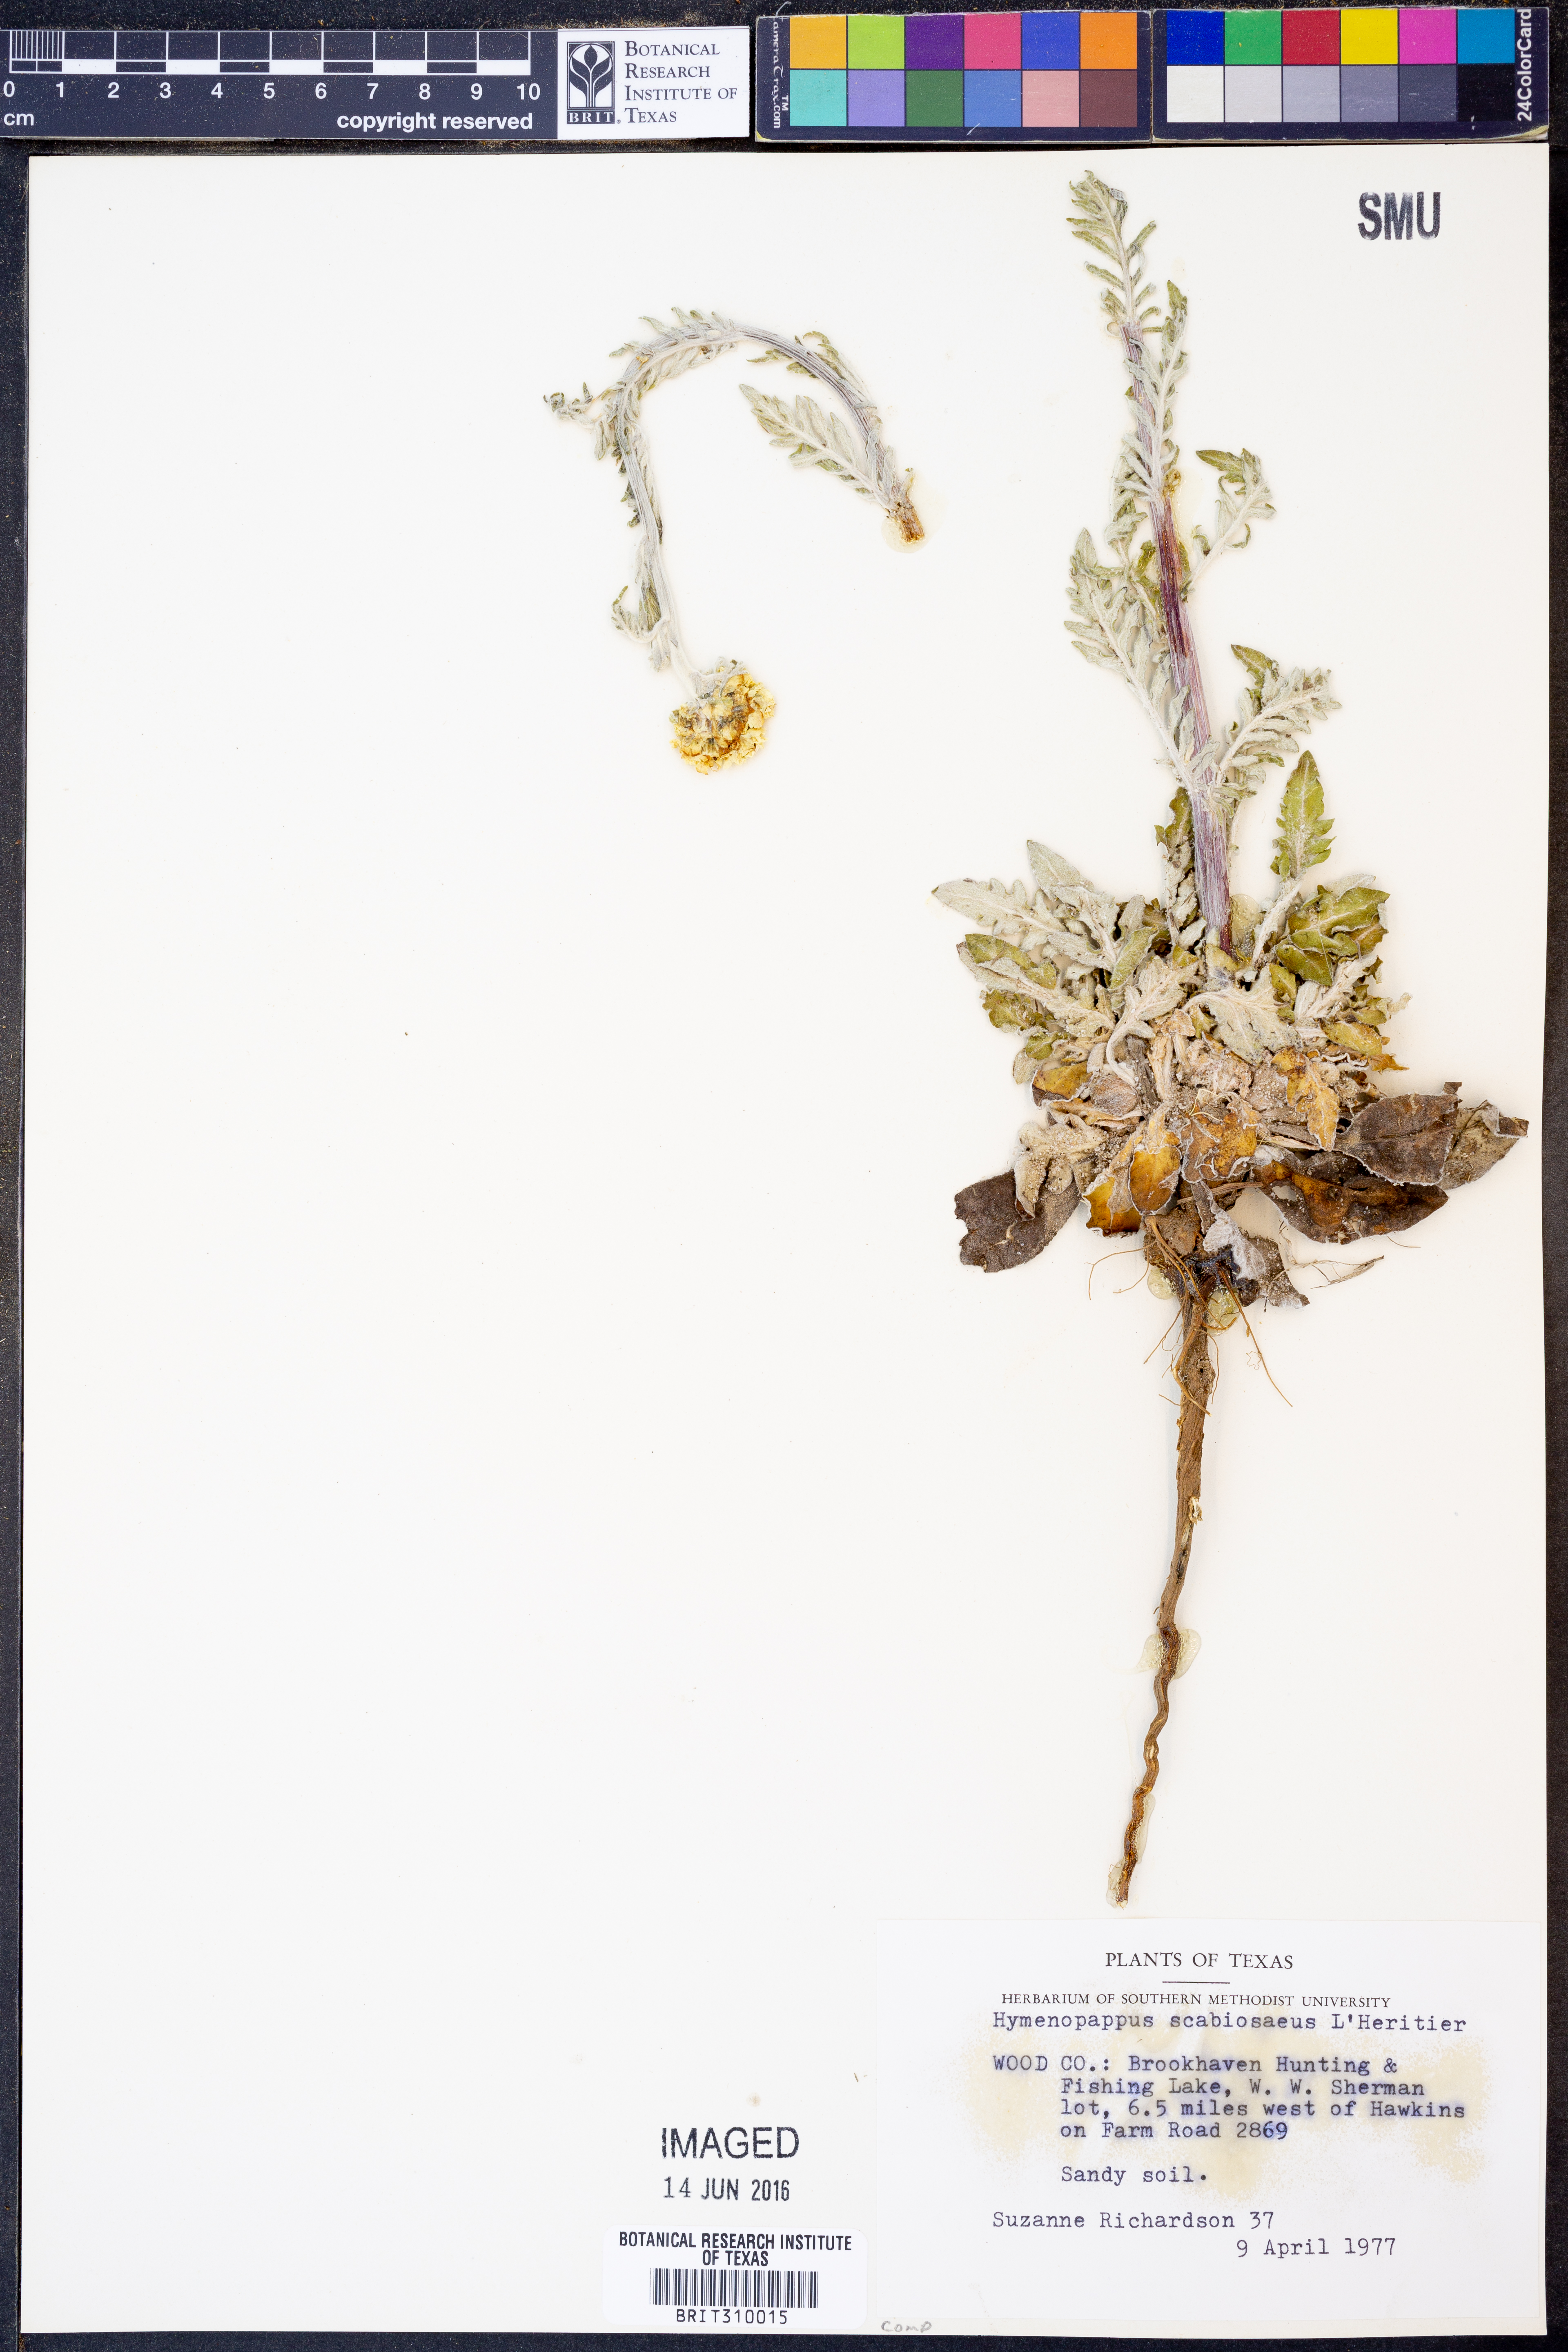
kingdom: Plantae
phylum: Tracheophyta
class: Magnoliopsida
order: Asterales
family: Asteraceae
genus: Hymenopappus
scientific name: Hymenopappus scabiosaeus
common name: Carolina woollywhite
